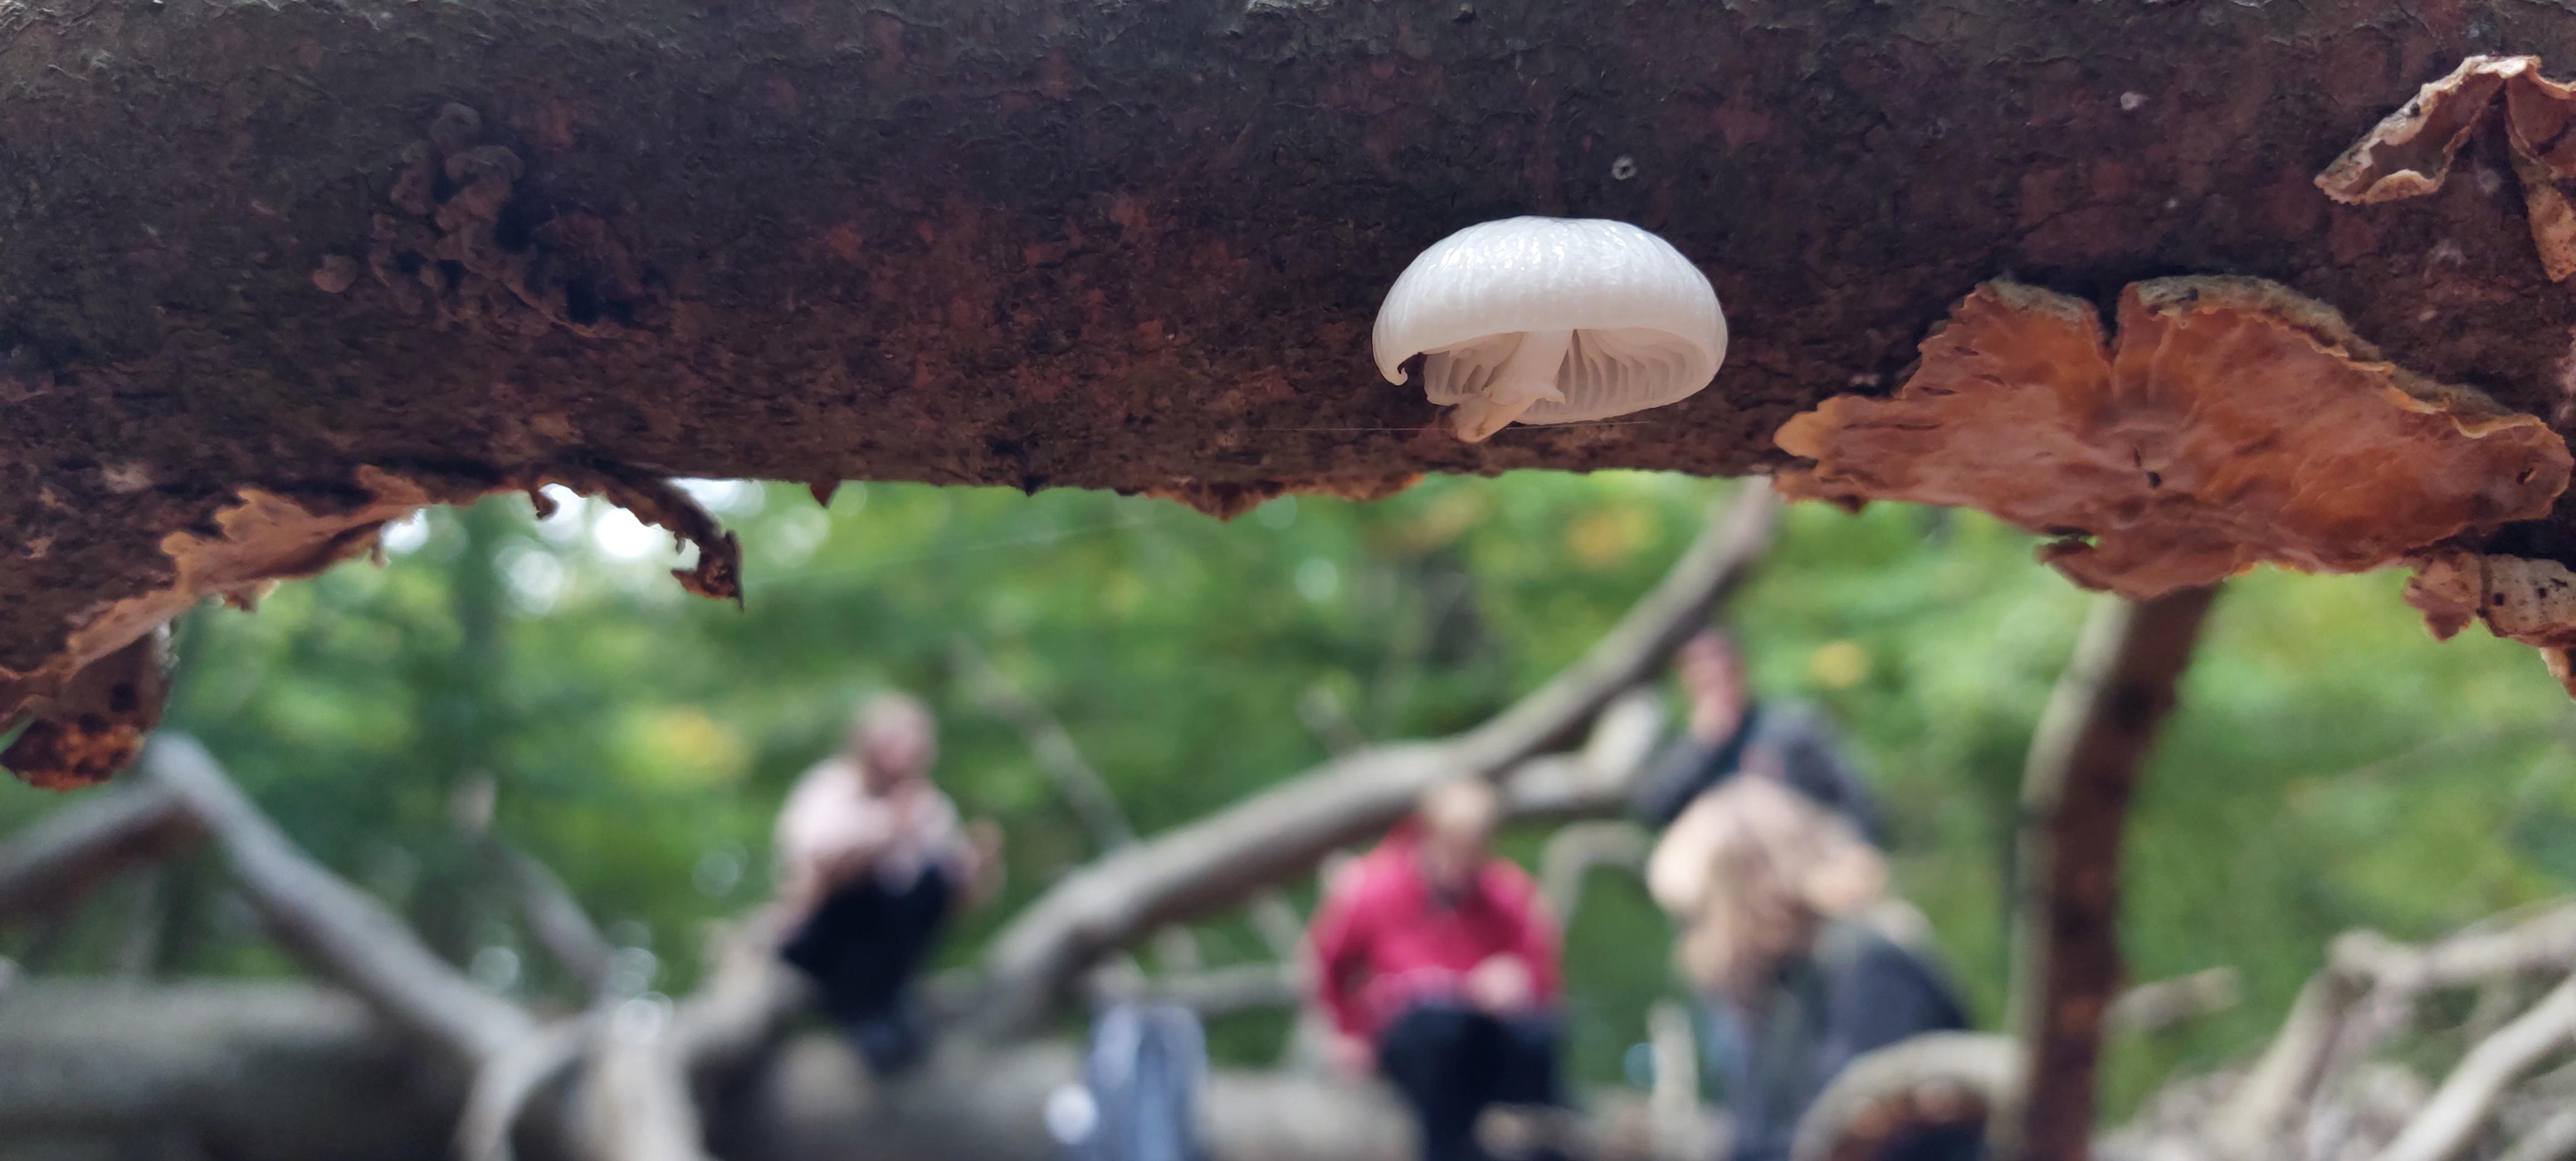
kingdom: Fungi
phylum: Basidiomycota
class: Agaricomycetes
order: Agaricales
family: Physalacriaceae
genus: Mucidula
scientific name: Mucidula mucida
